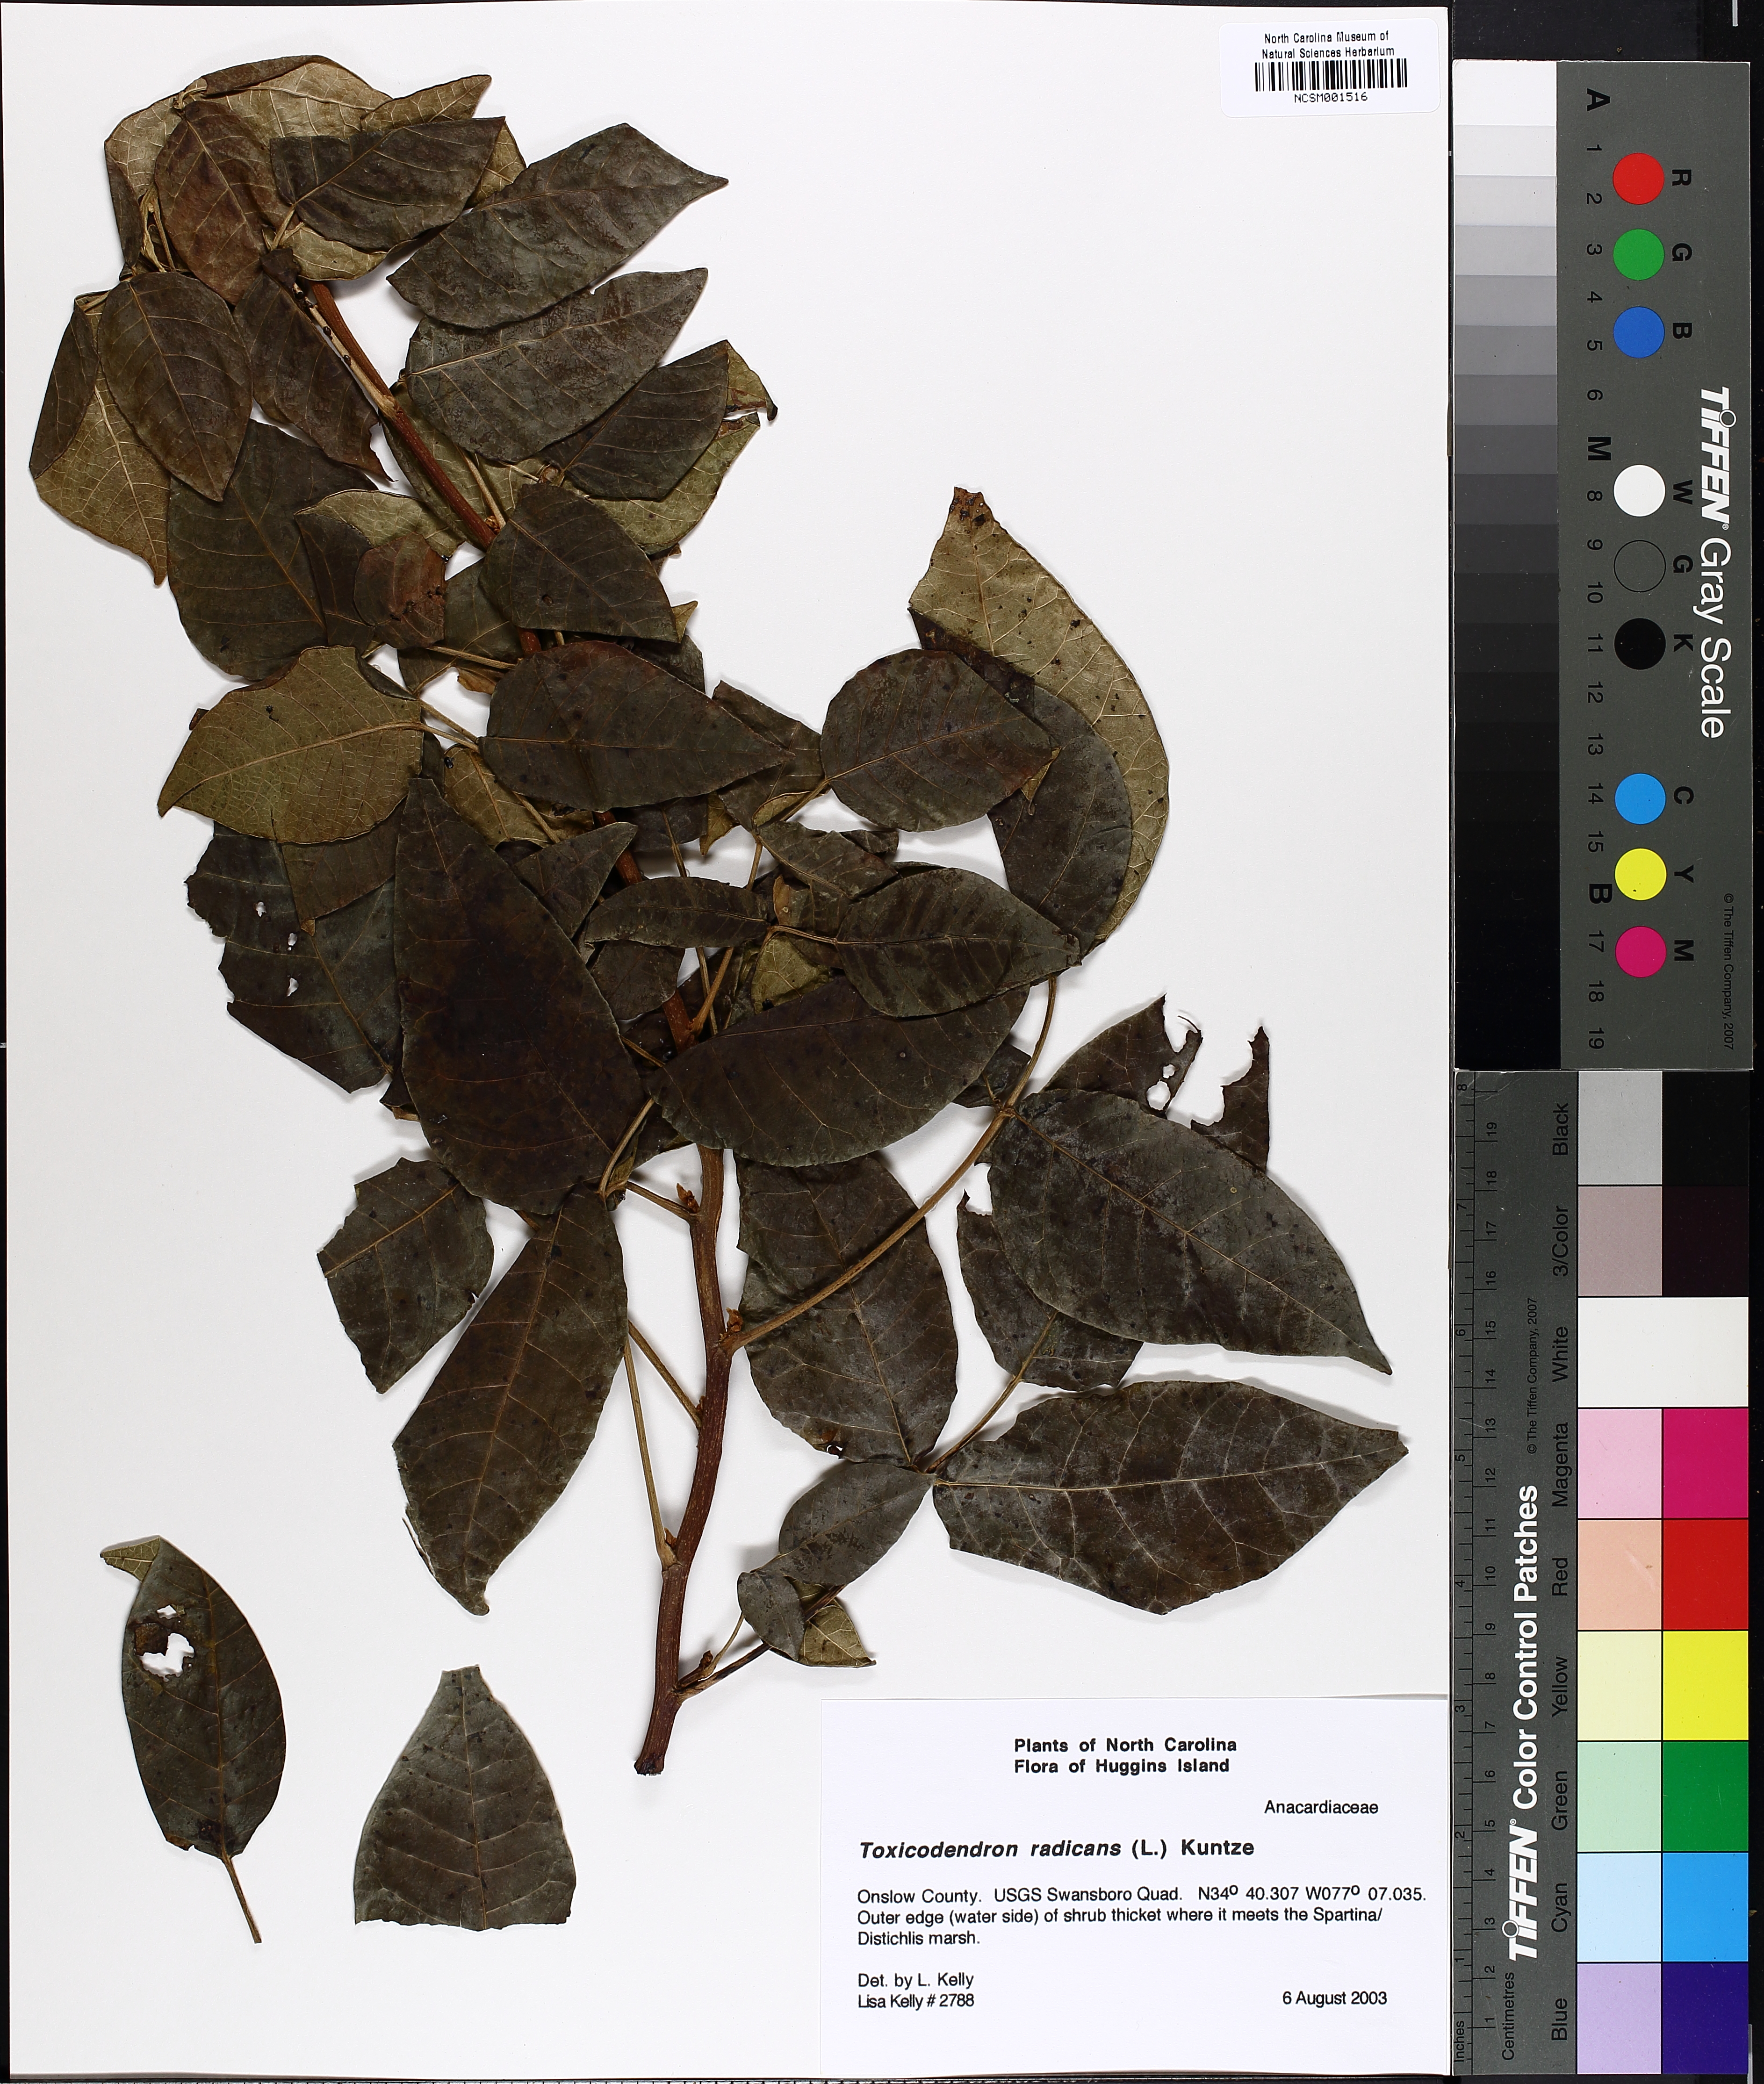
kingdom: Plantae
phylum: Tracheophyta
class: Magnoliopsida
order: Sapindales
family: Anacardiaceae
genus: Toxicodendron
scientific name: Toxicodendron radicans
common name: Poison ivy
